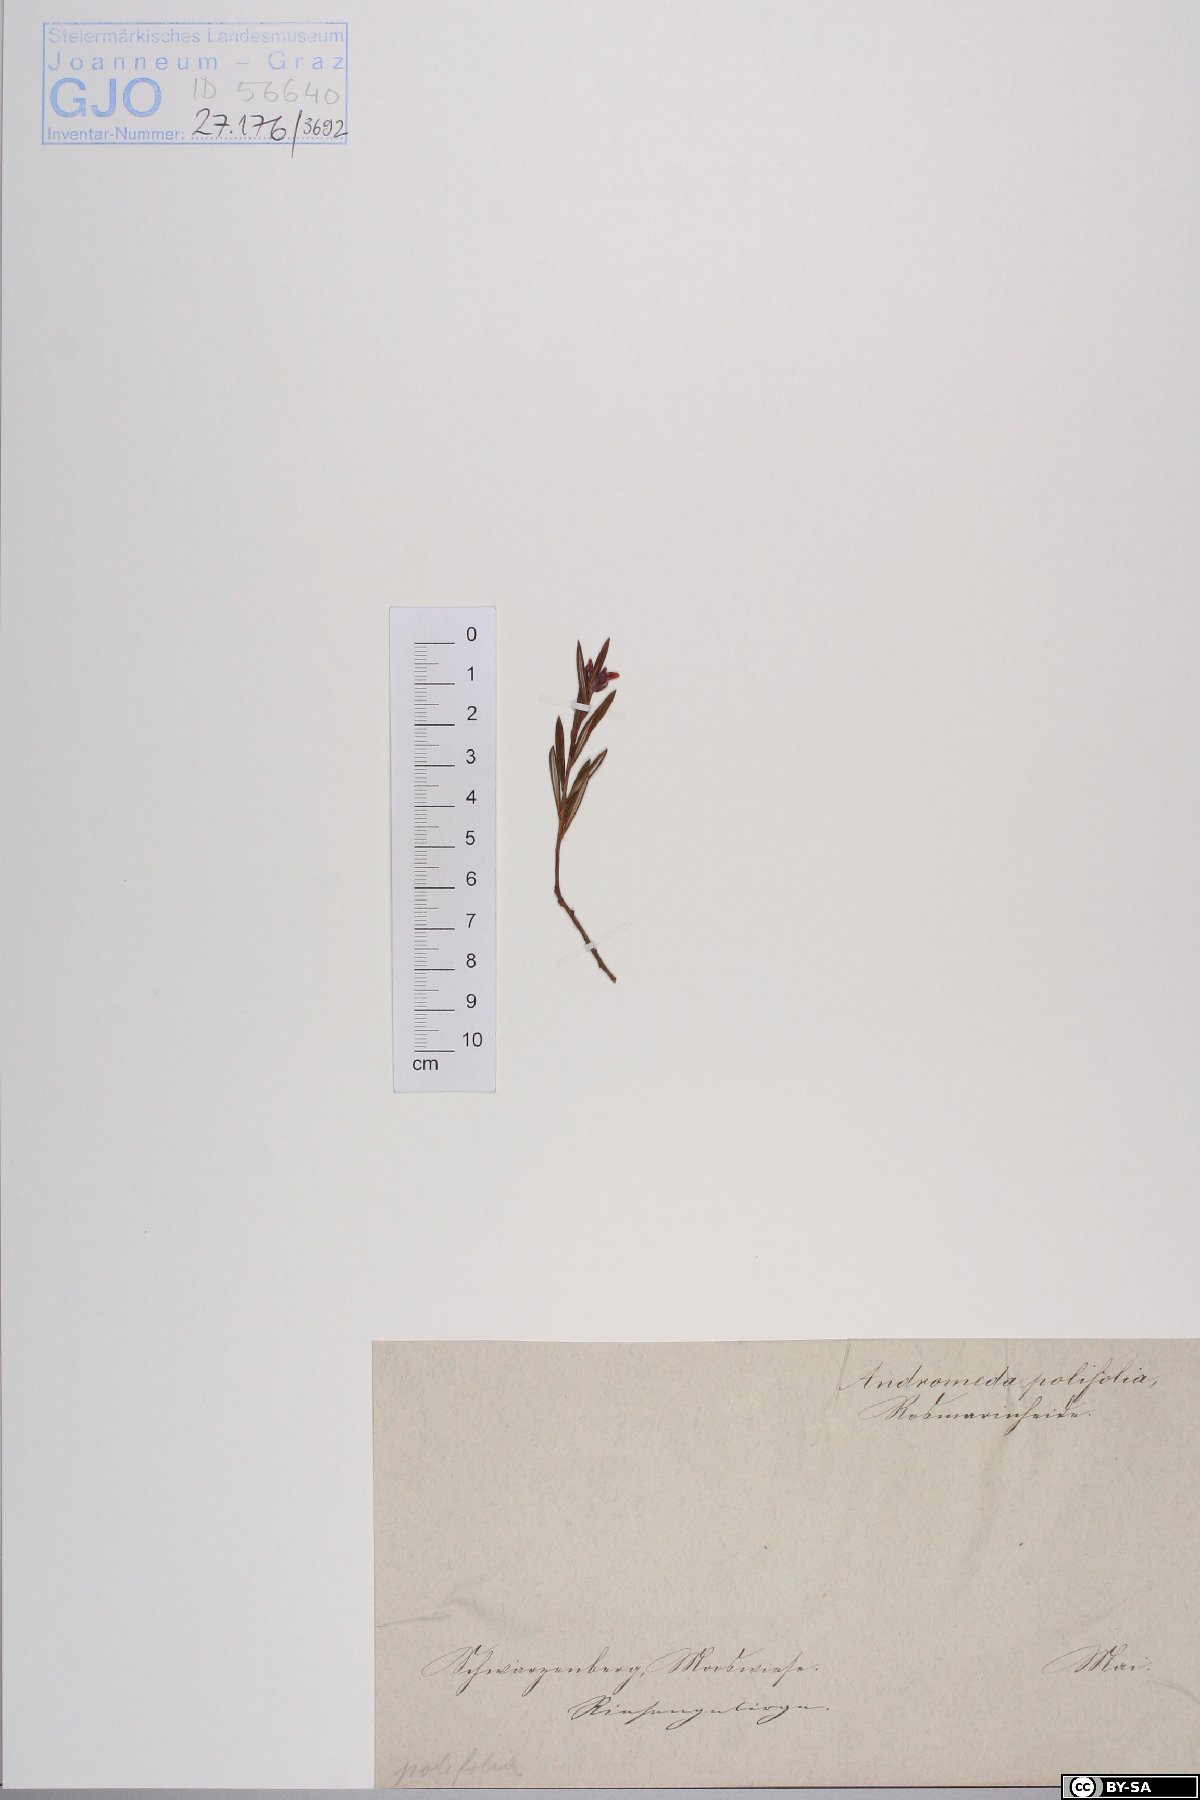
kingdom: Plantae
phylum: Tracheophyta
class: Magnoliopsida
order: Ericales
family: Ericaceae
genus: Andromeda
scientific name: Andromeda polifolia
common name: Bog-rosemary
